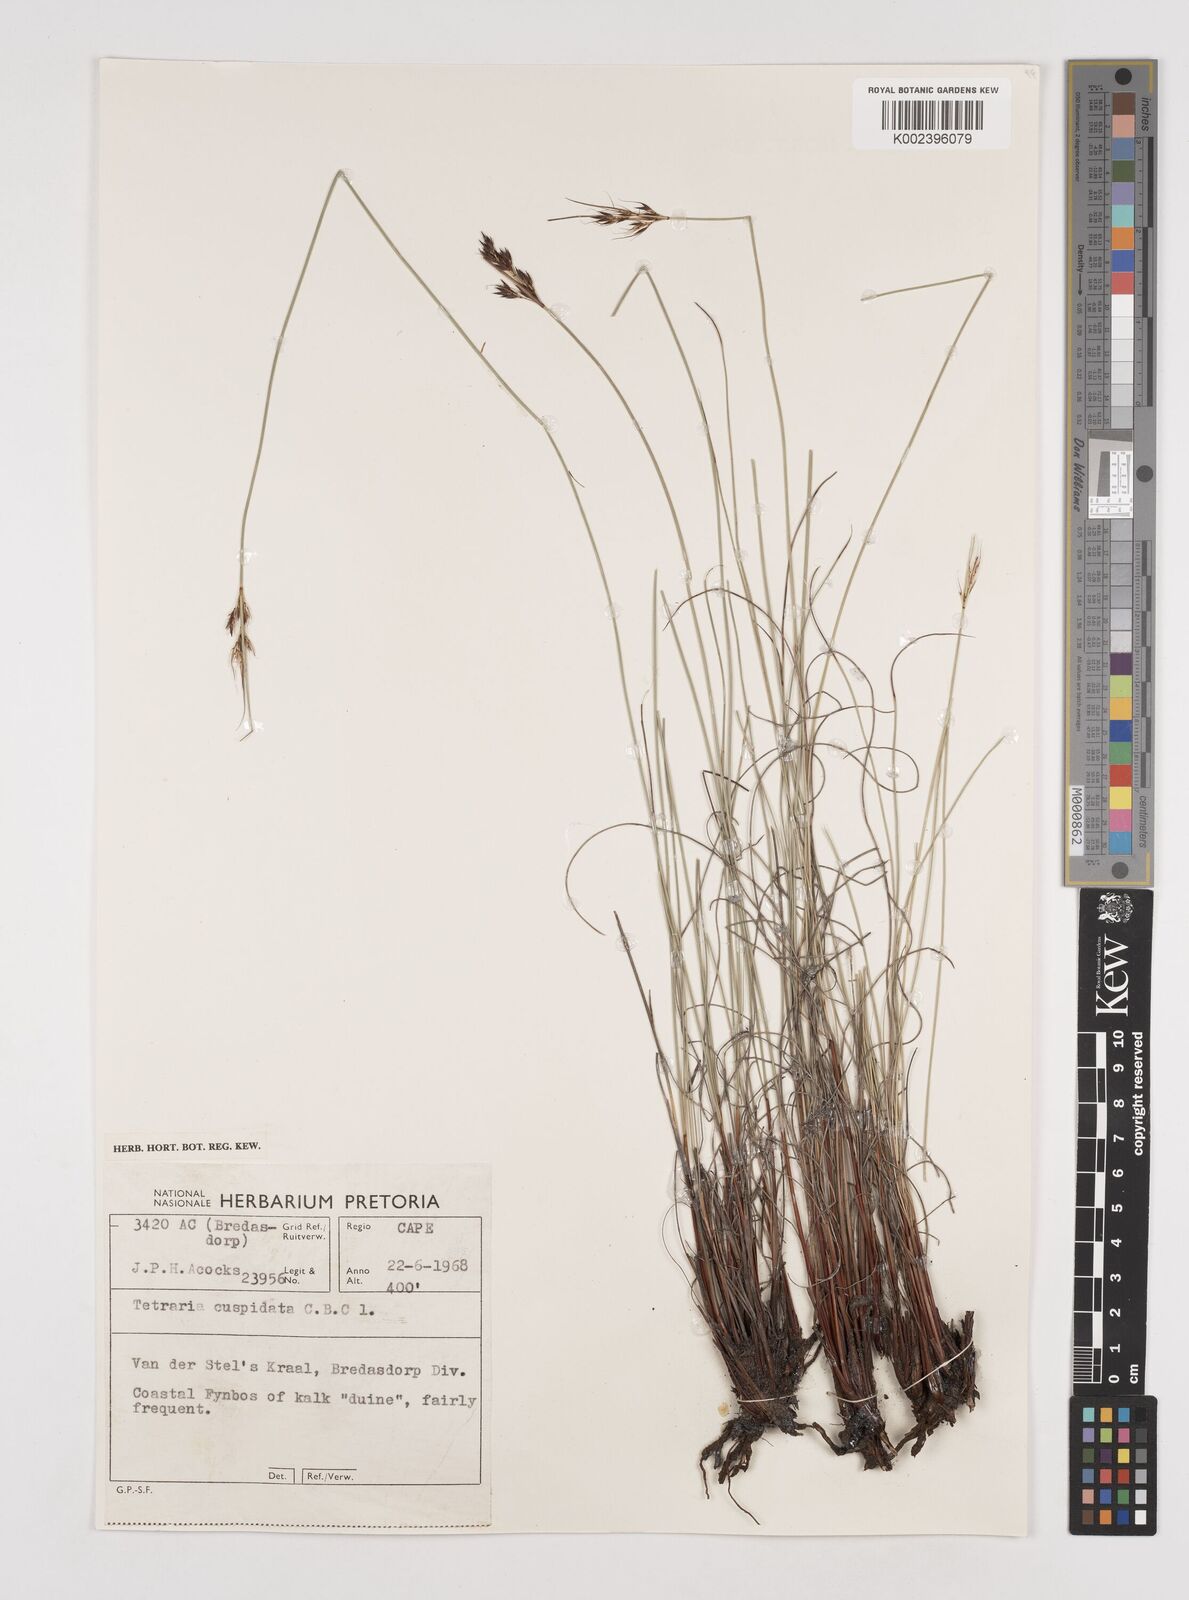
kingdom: Plantae
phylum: Tracheophyta
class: Liliopsida
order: Poales
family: Cyperaceae
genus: Schoenus
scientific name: Schoenus cuspidatus
